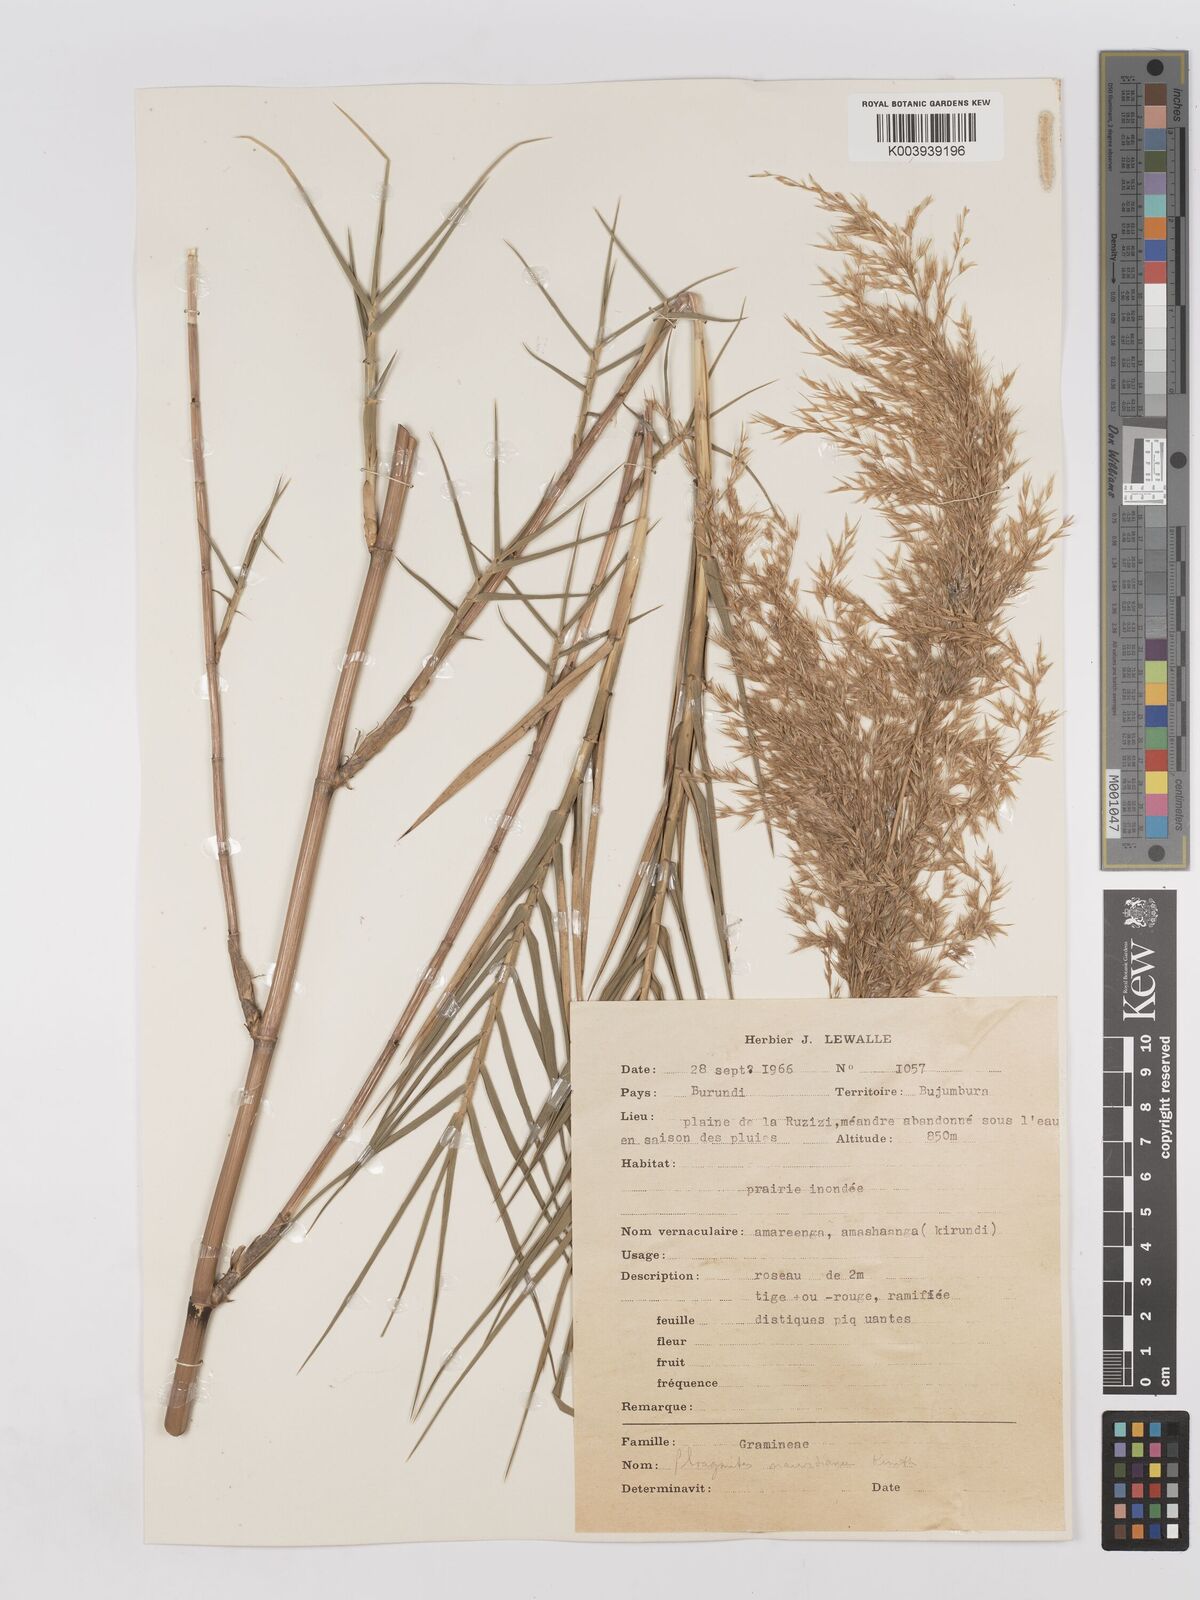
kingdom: Plantae
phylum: Tracheophyta
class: Liliopsida
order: Poales
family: Poaceae
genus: Phragmites
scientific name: Phragmites mauritianus
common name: Reed grass
